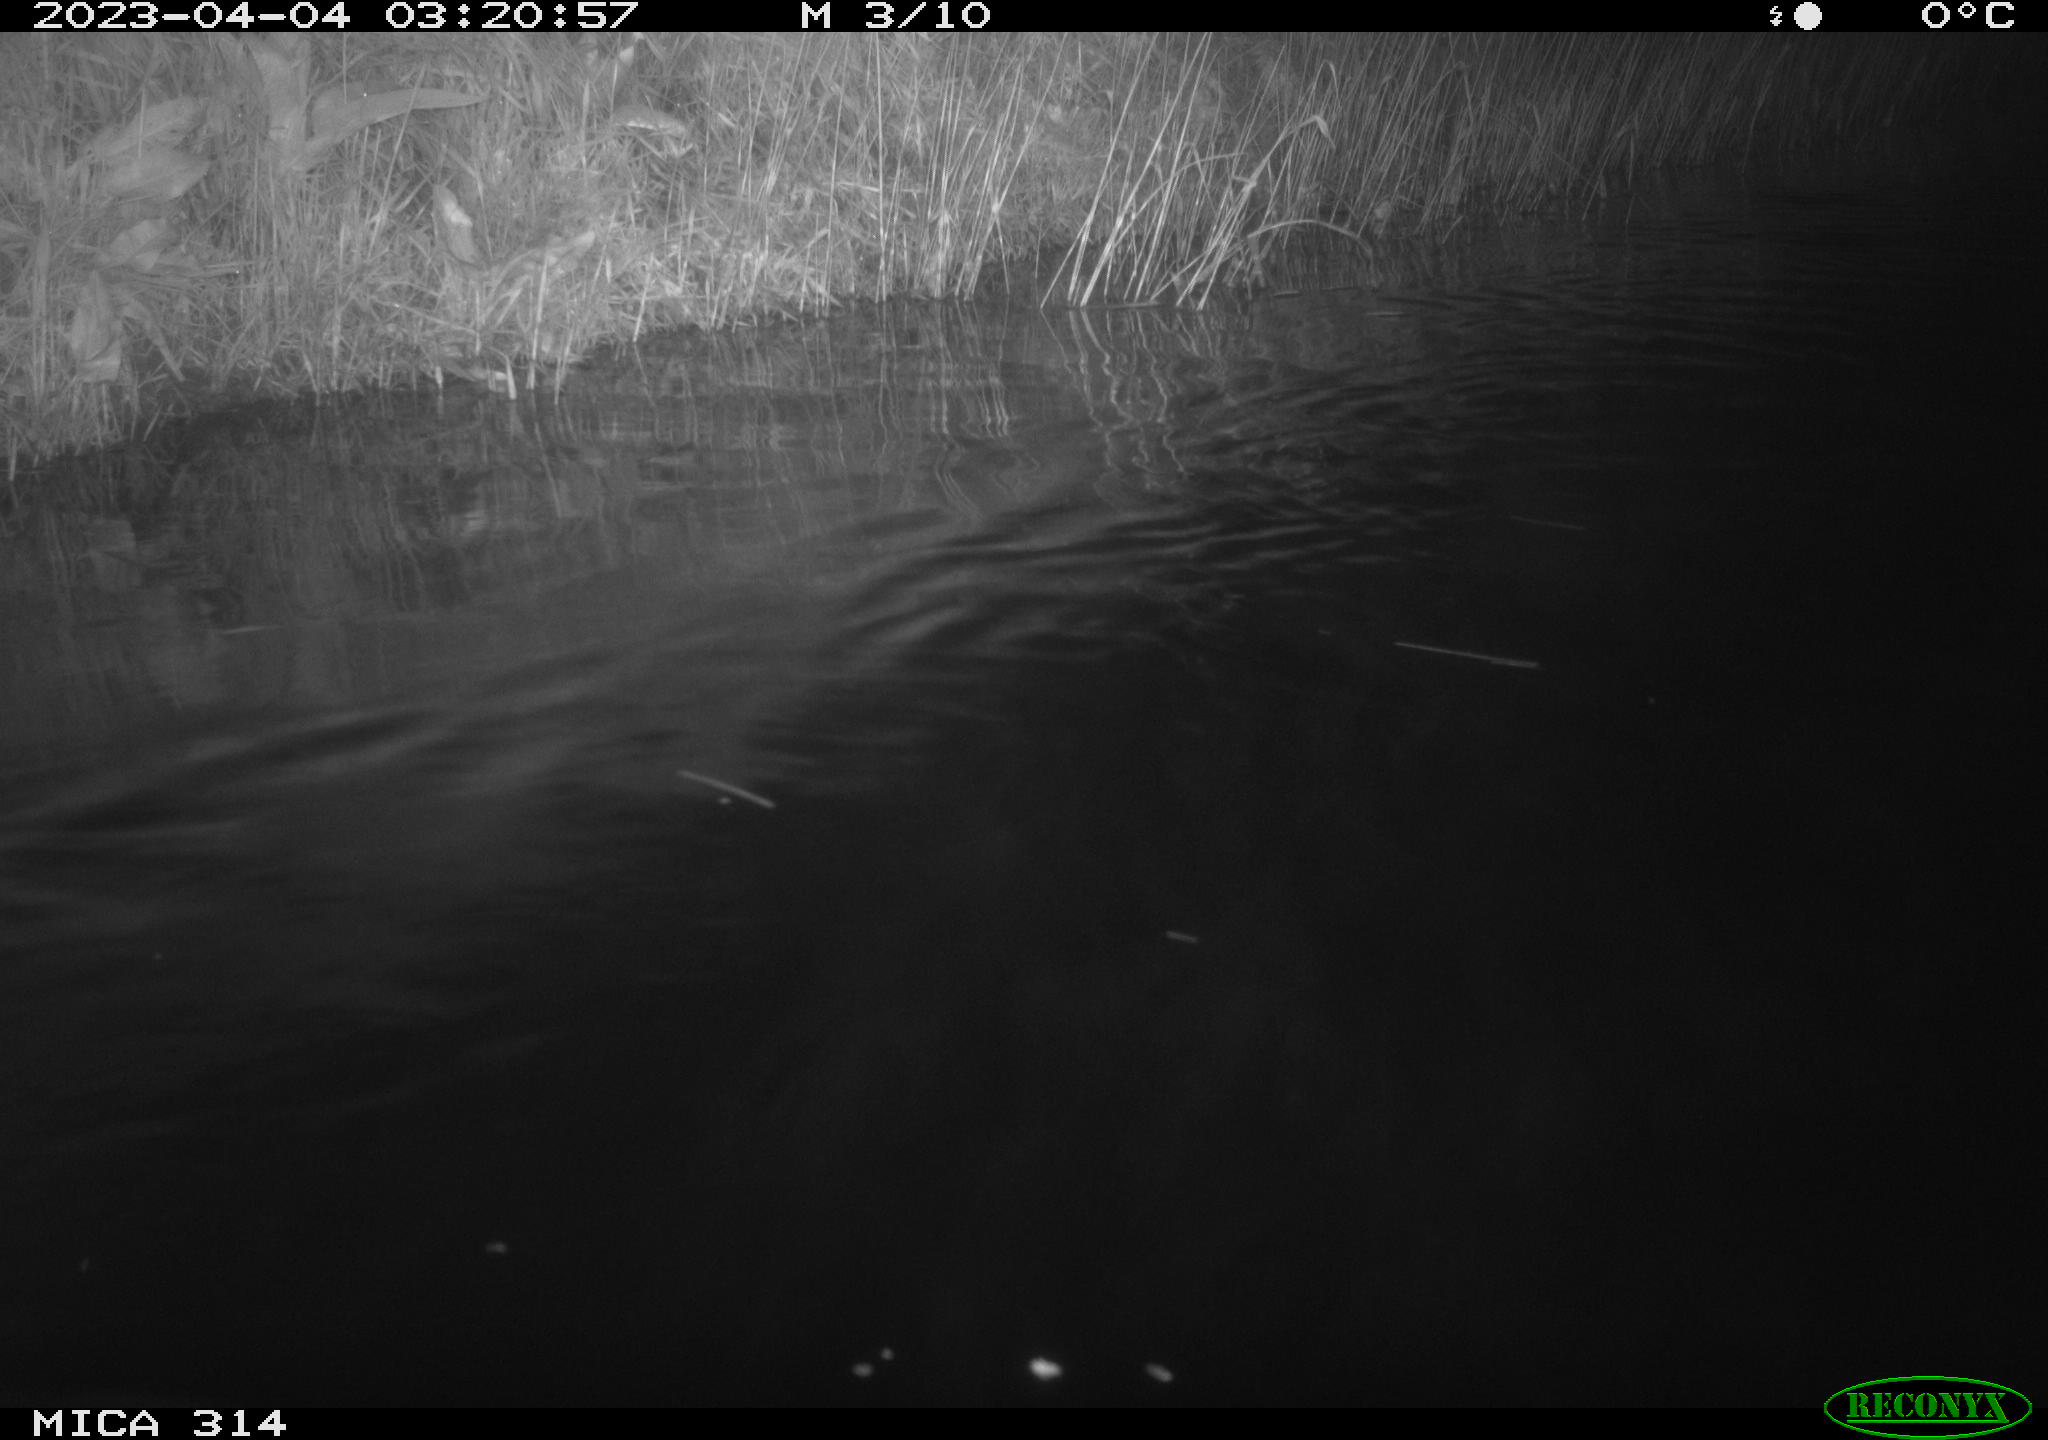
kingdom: Animalia
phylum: Chordata
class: Aves
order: Anseriformes
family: Anatidae
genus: Anas
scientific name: Anas
